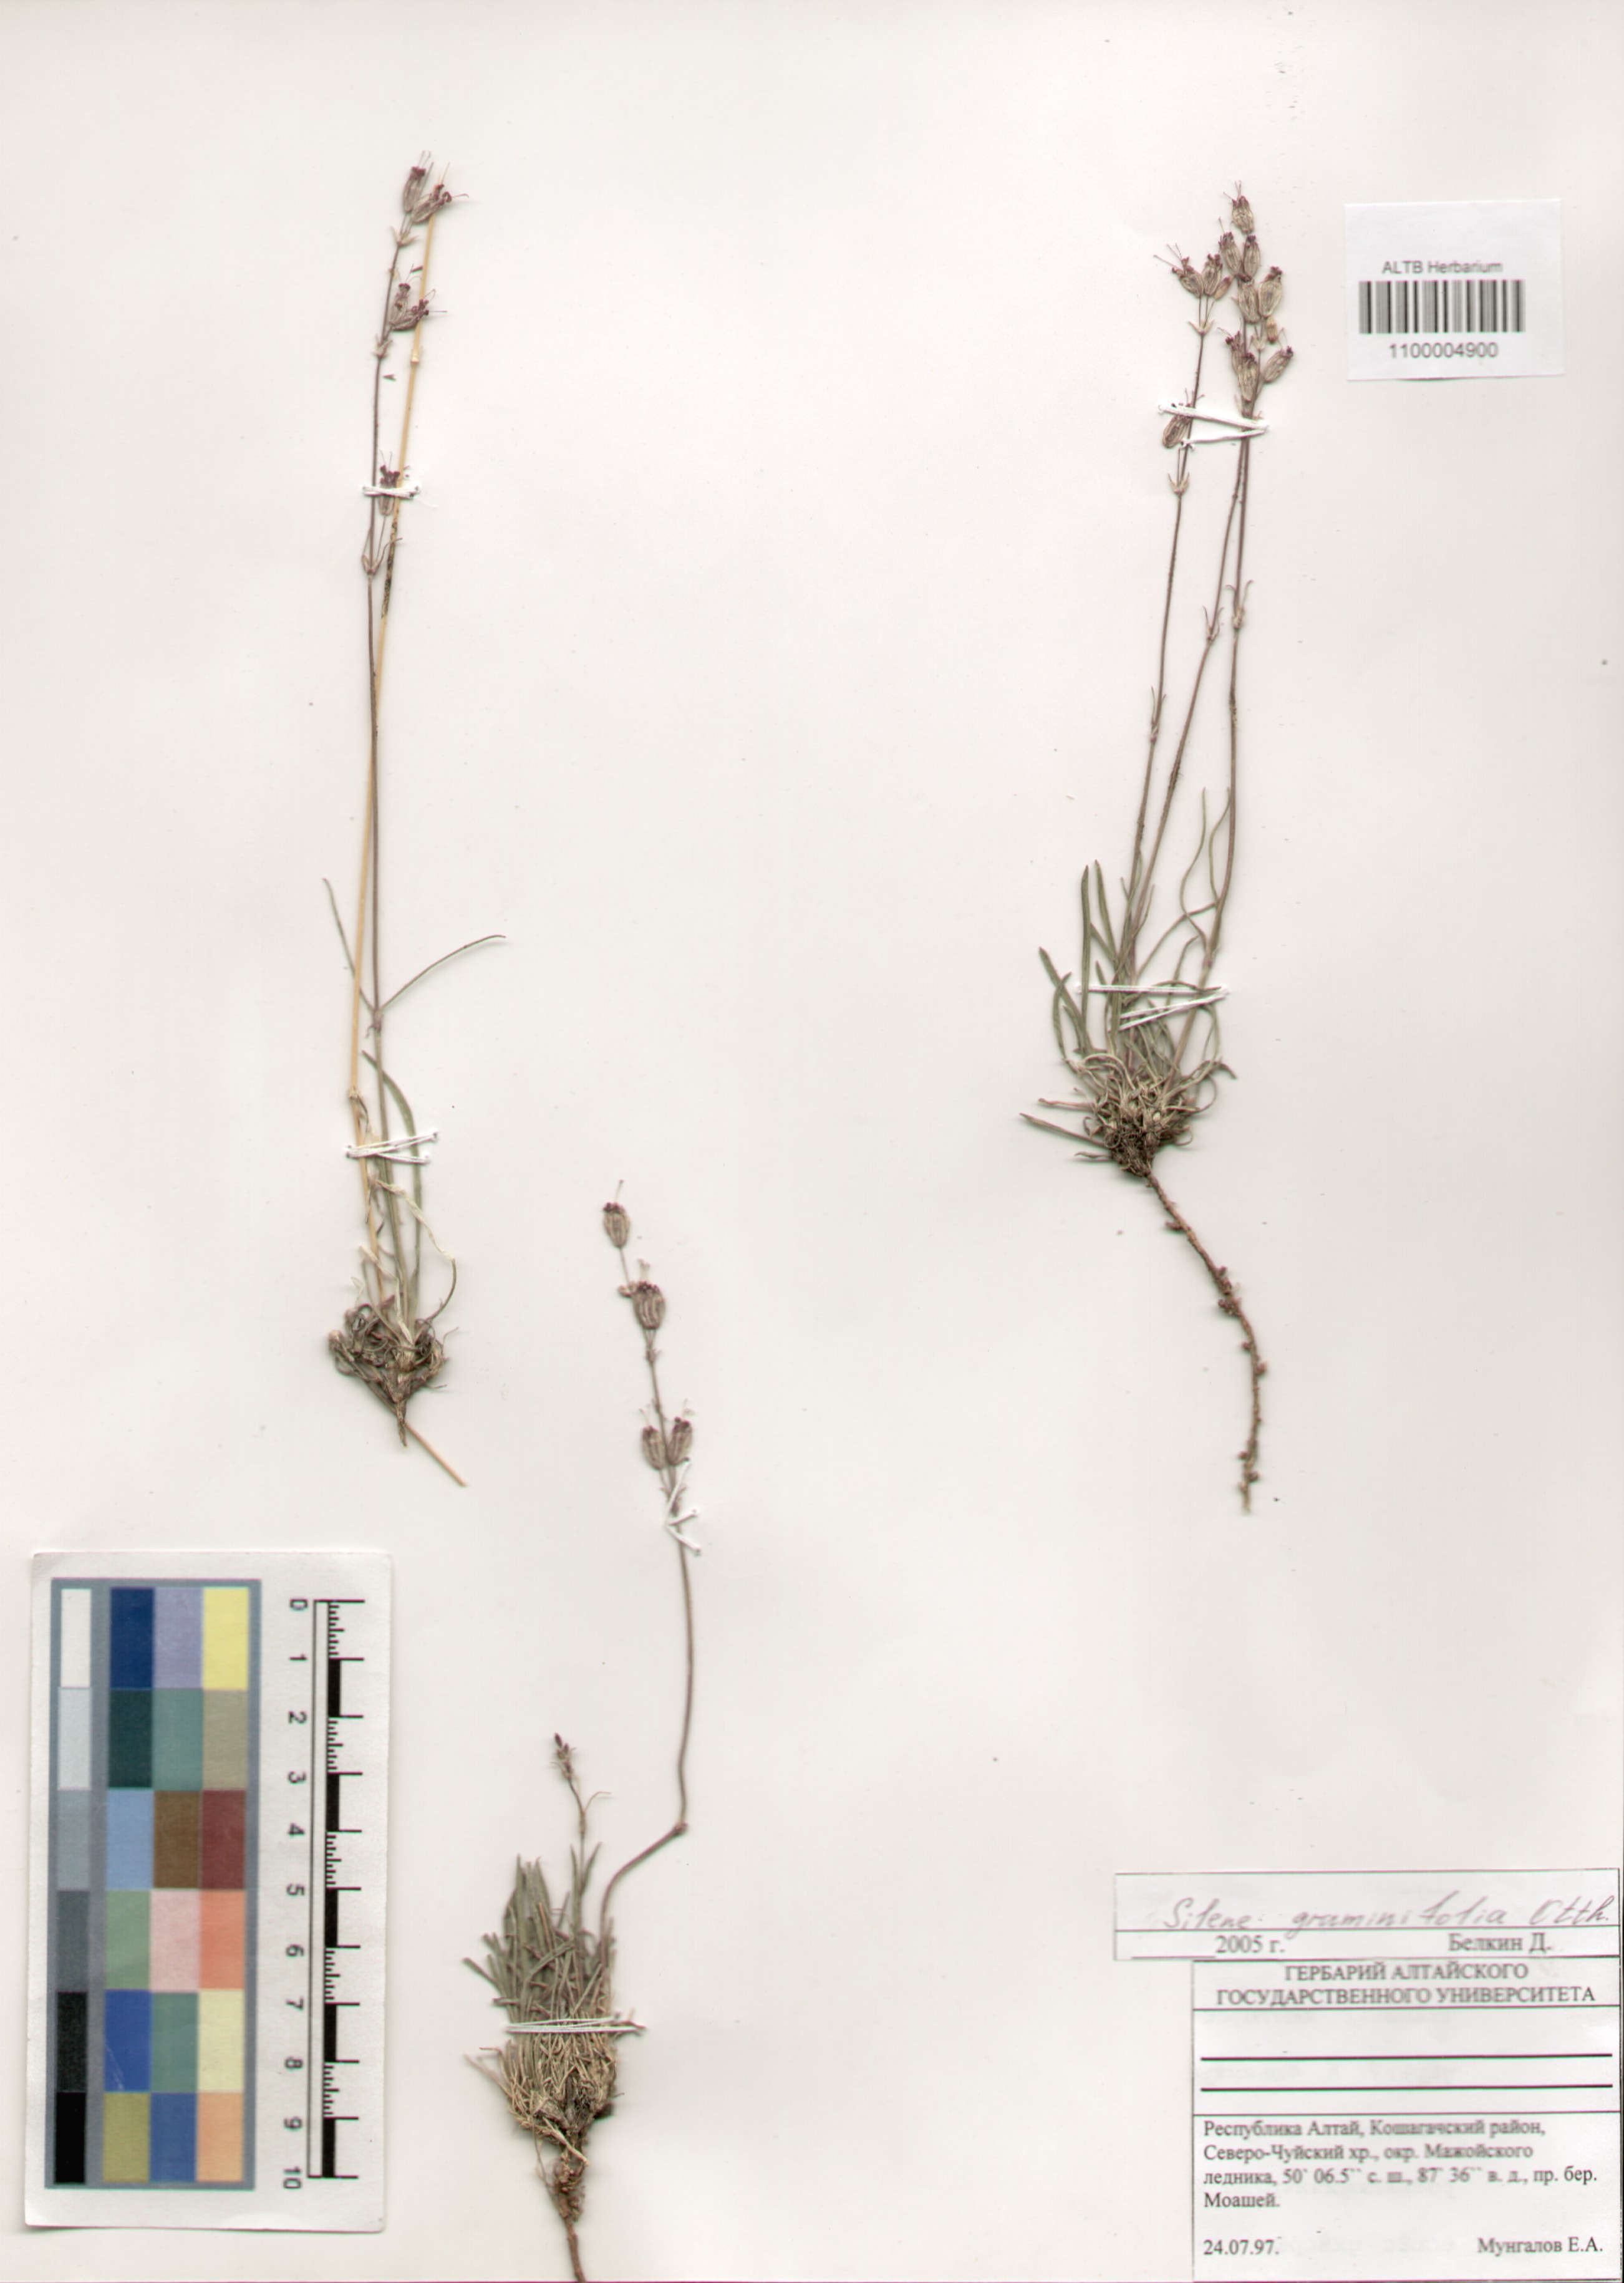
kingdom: Plantae
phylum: Tracheophyta
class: Magnoliopsida
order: Caryophyllales
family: Caryophyllaceae
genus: Silene
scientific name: Silene graminifolia
